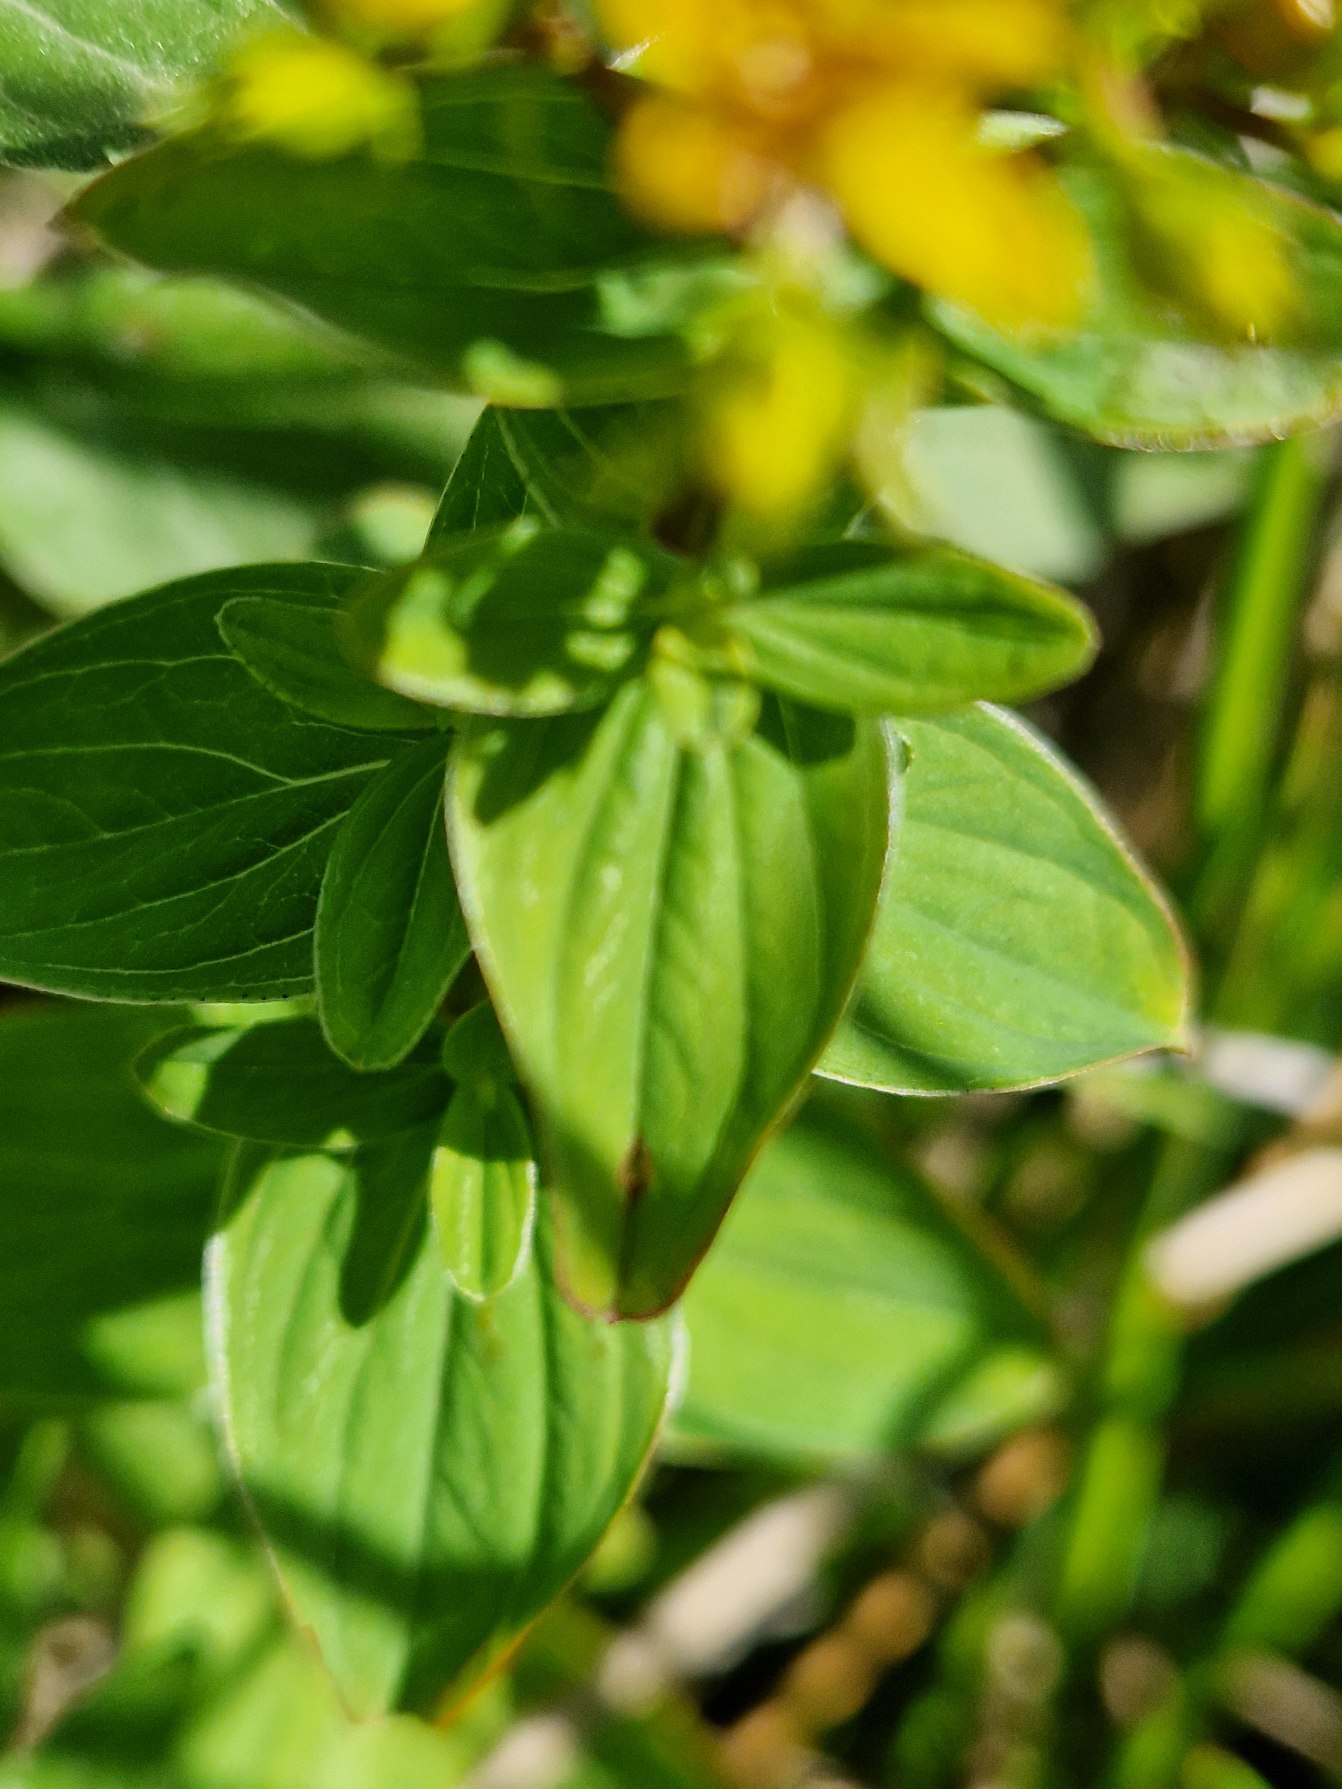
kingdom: Plantae
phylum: Tracheophyta
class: Magnoliopsida
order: Malpighiales
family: Hypericaceae
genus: Hypericum
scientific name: Hypericum tetrapterum
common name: Vinget perikon
